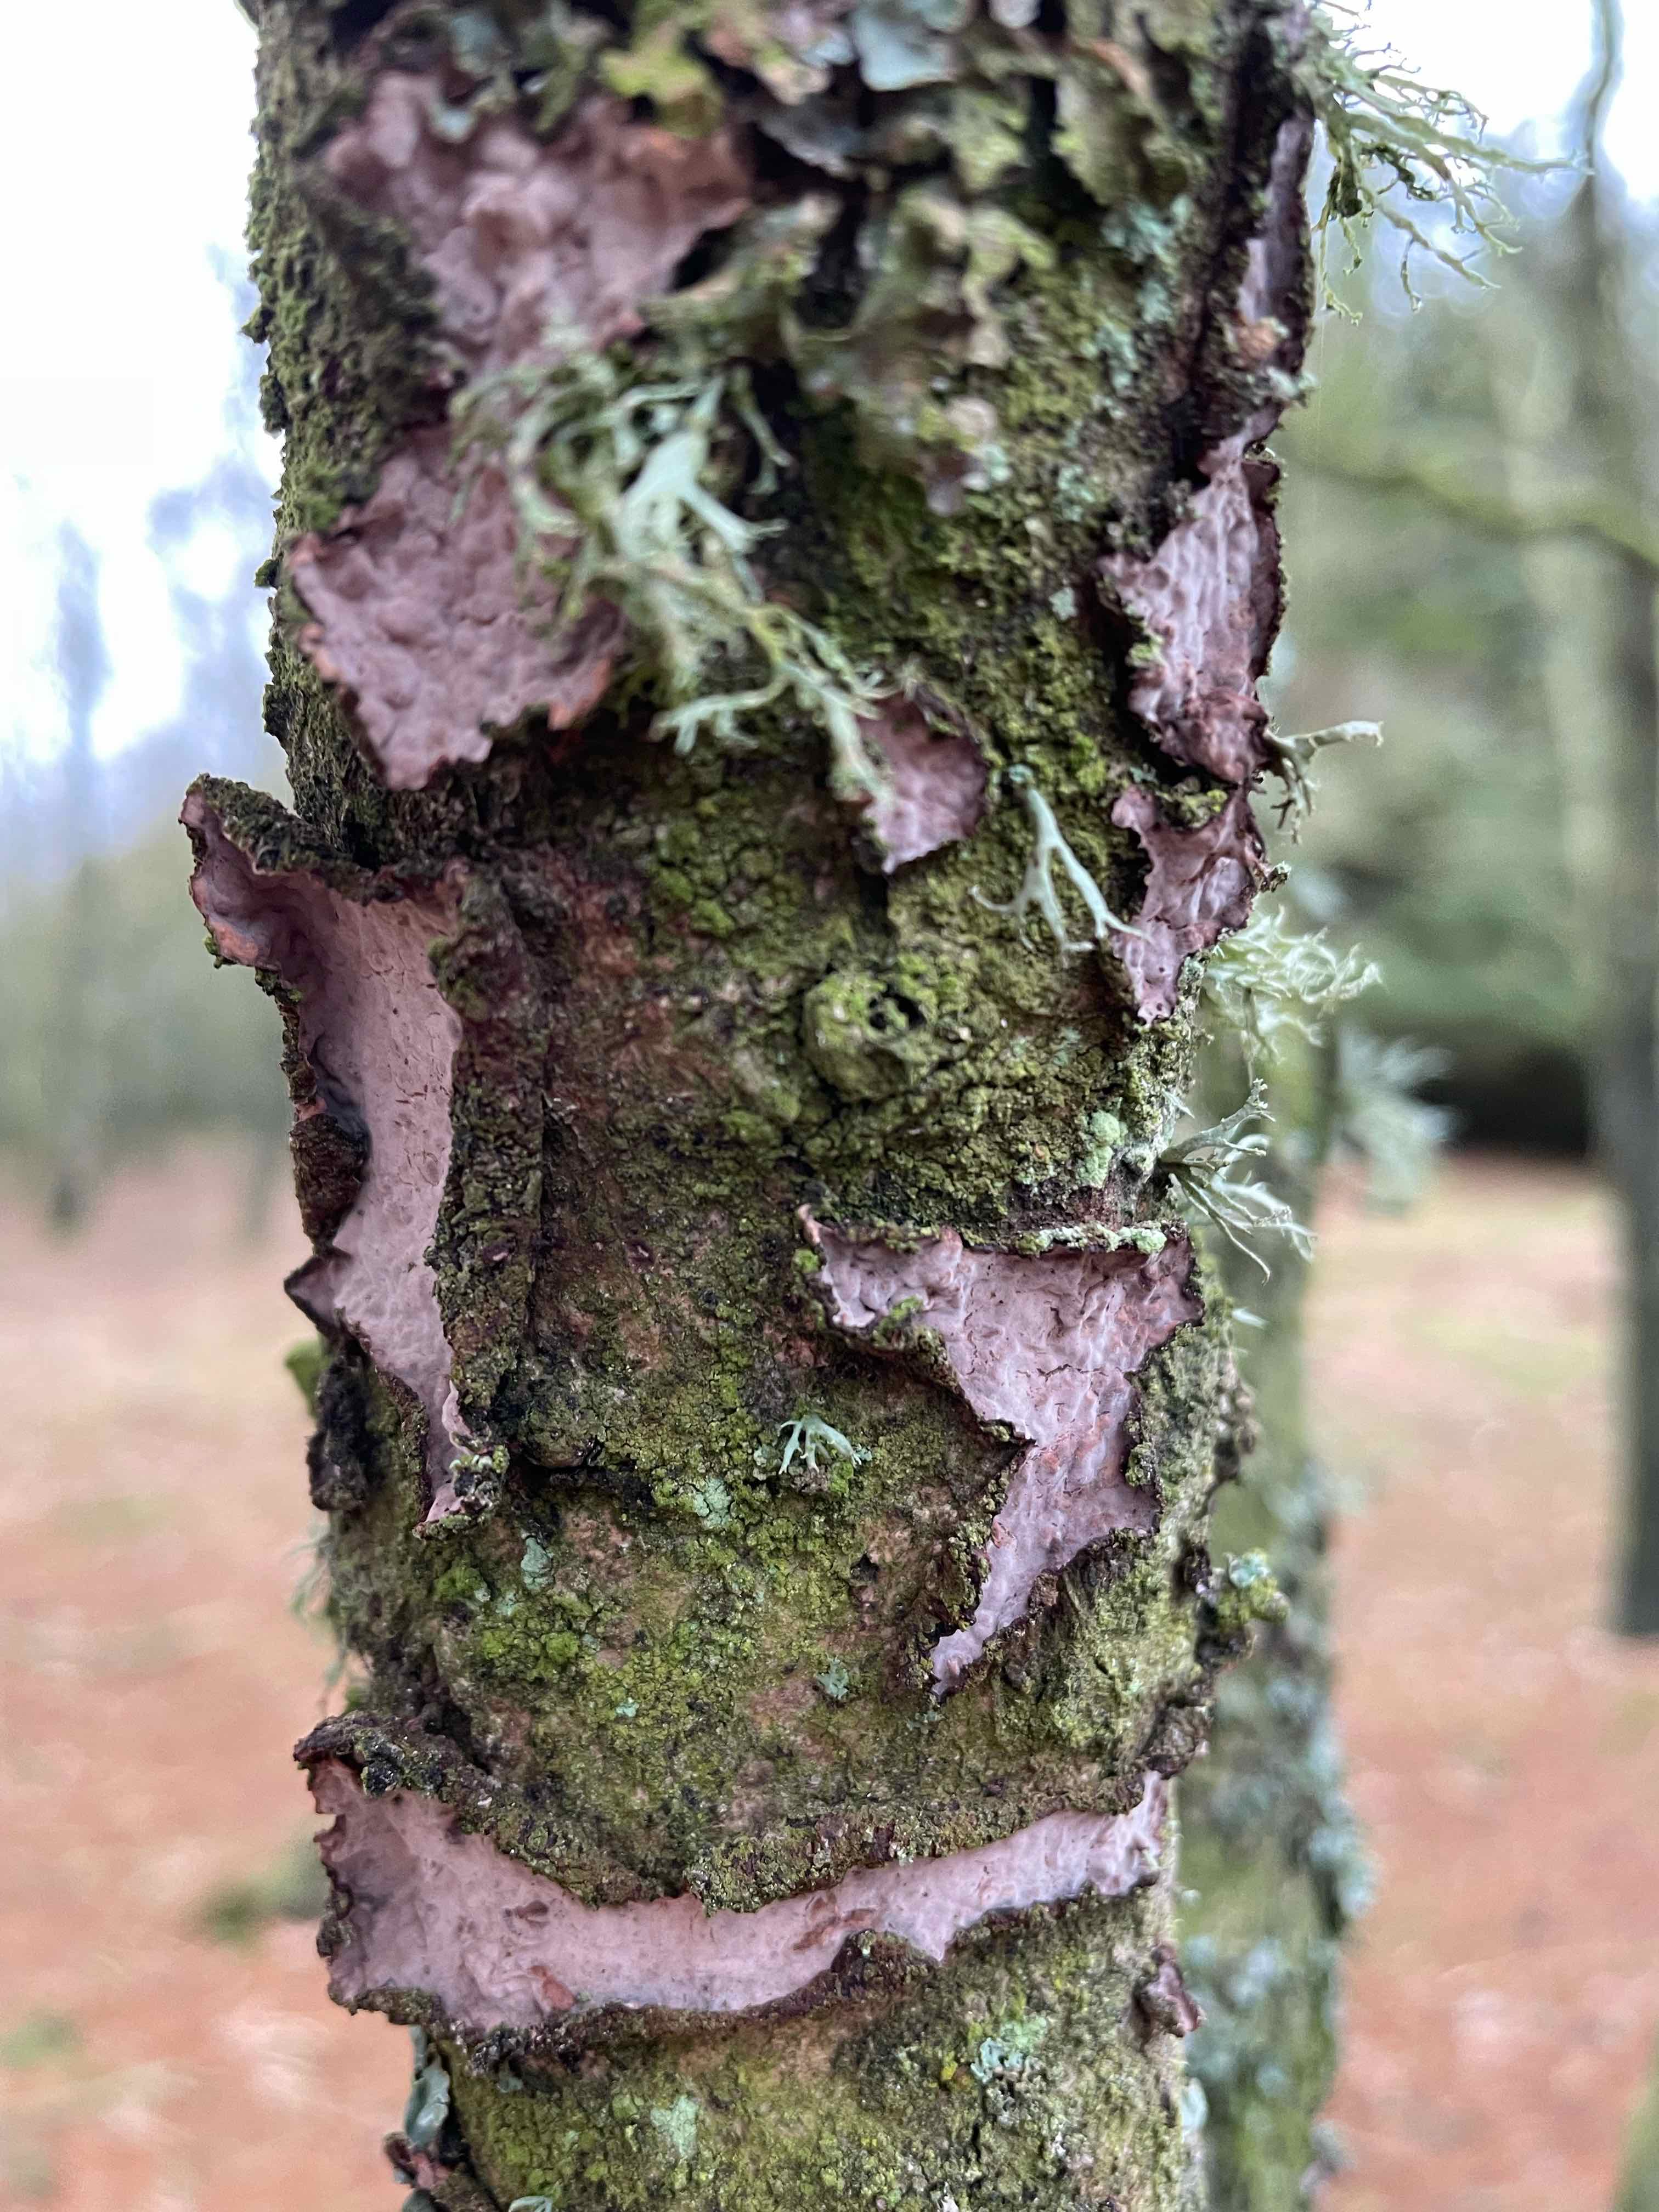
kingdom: Fungi
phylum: Basidiomycota
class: Agaricomycetes
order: Russulales
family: Peniophoraceae
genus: Peniophora
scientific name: Peniophora quercina
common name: ege-voksskind
